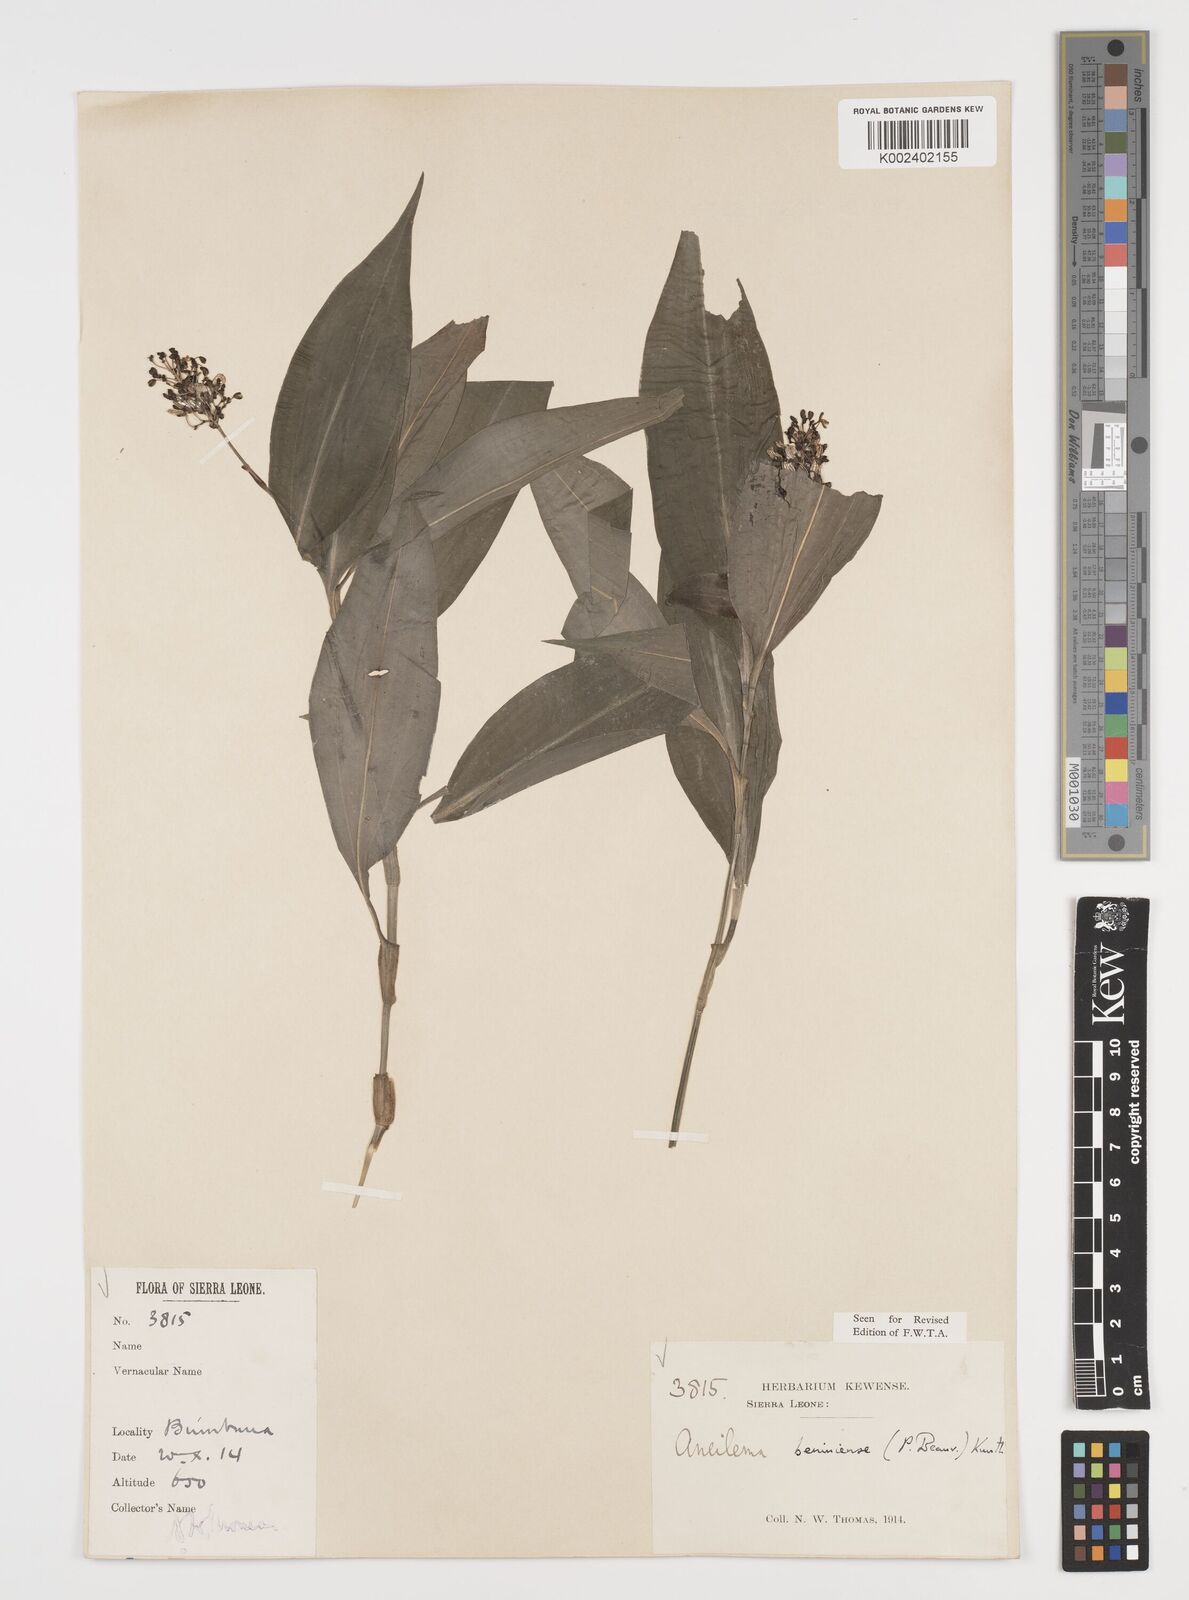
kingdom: Plantae
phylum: Tracheophyta
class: Liliopsida
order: Commelinales
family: Commelinaceae
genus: Aneilema
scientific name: Aneilema beniniense
